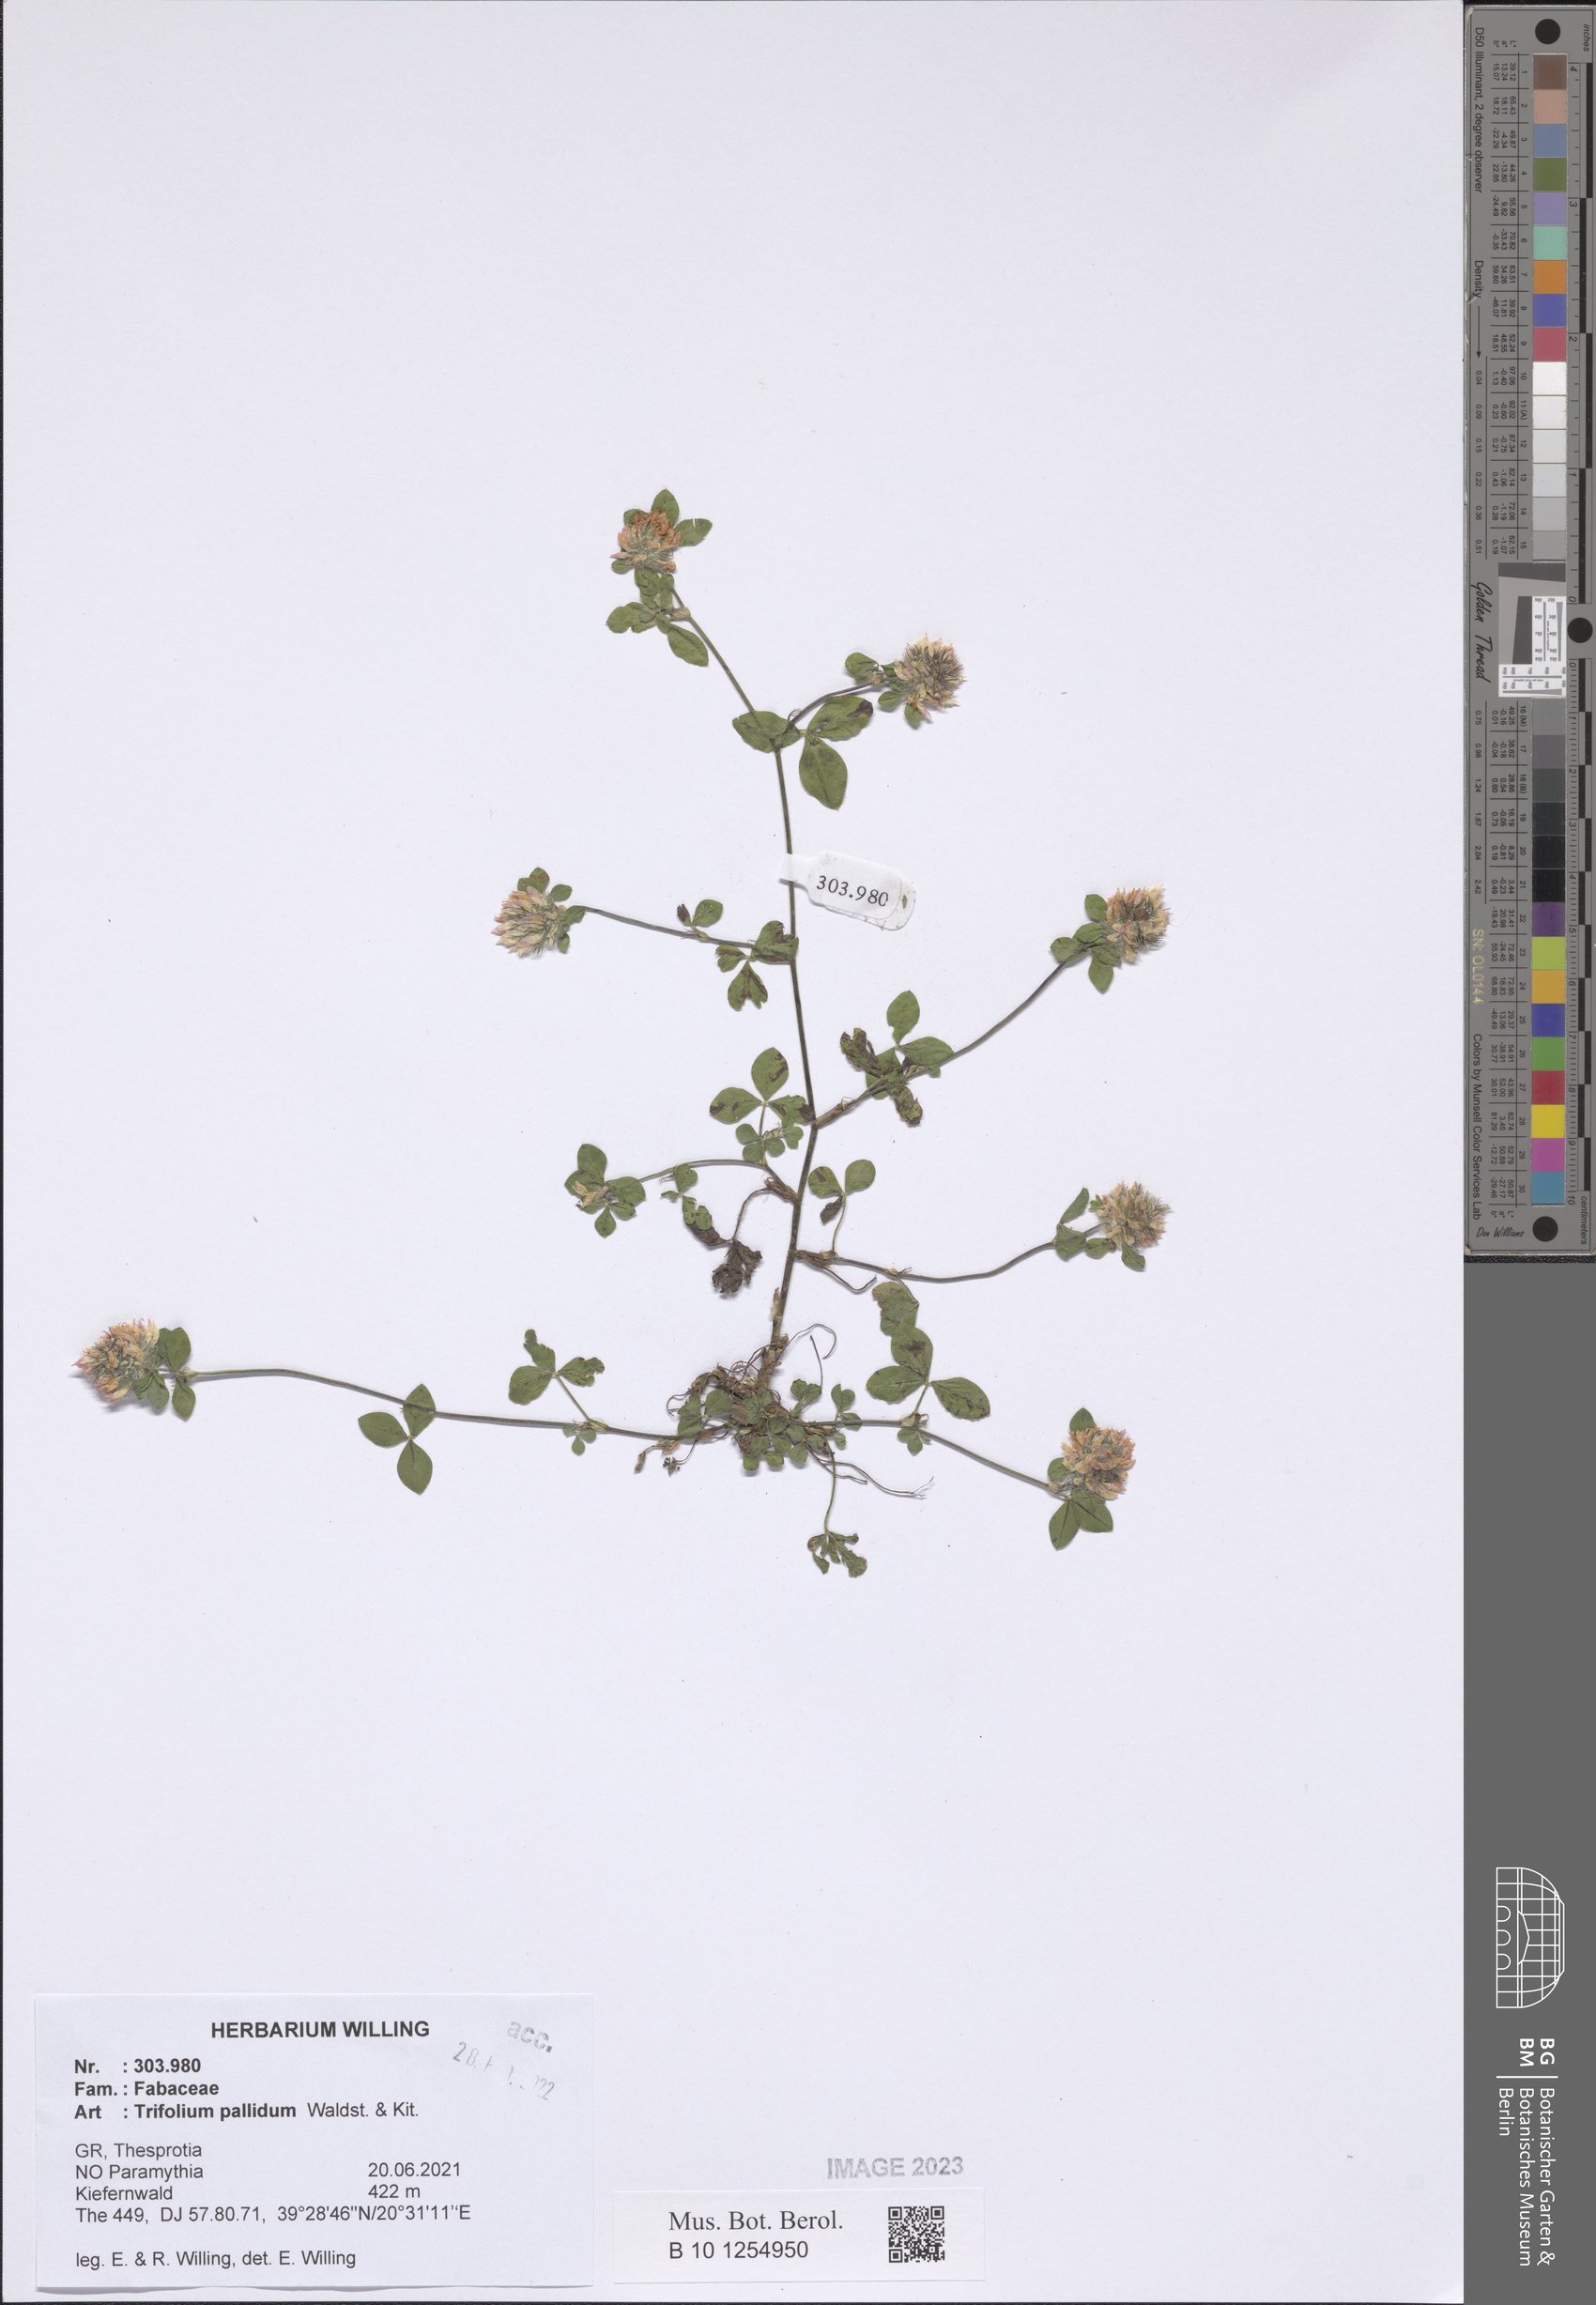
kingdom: Plantae
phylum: Tracheophyta
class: Magnoliopsida
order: Fabales
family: Fabaceae
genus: Trifolium
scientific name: Trifolium pallidum
